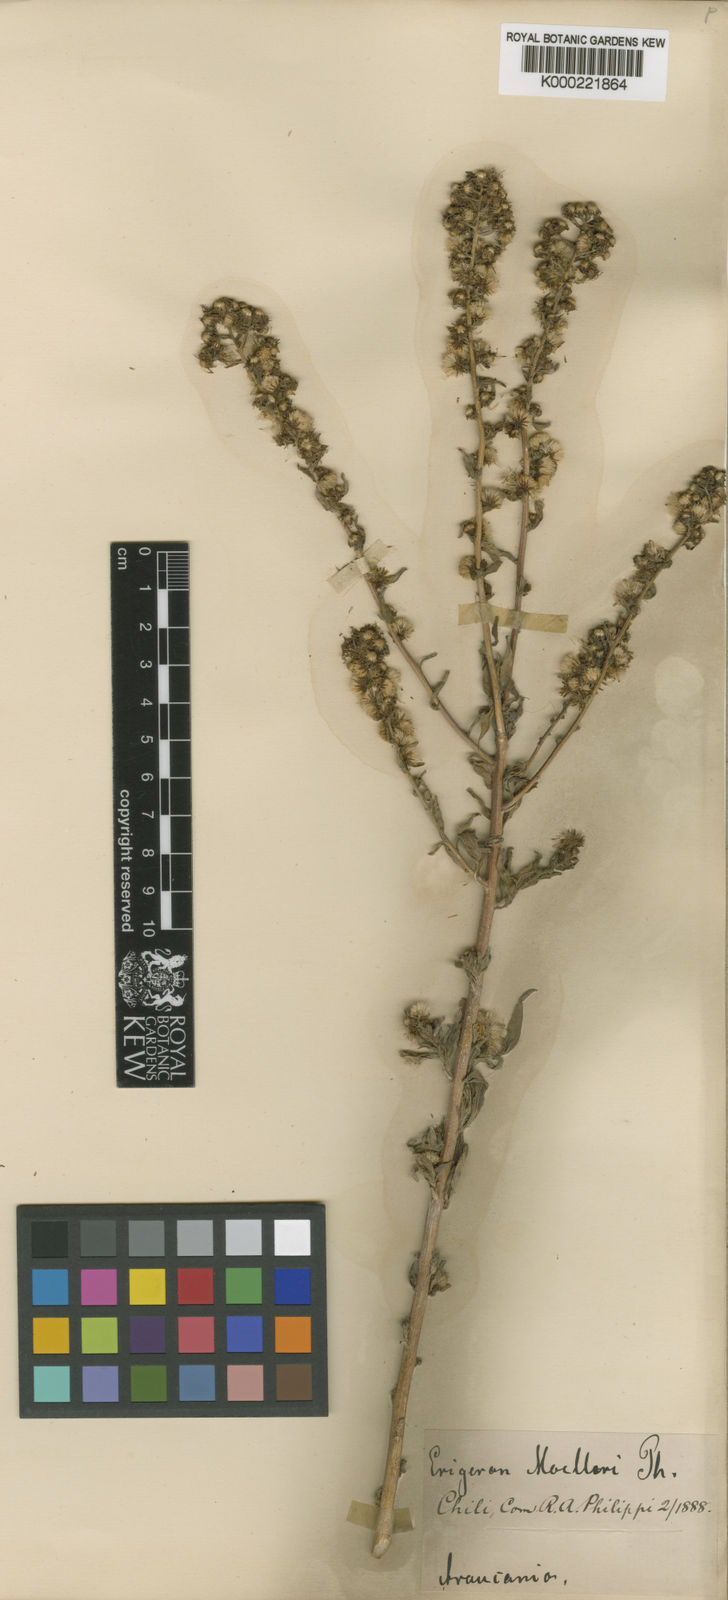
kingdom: Plantae
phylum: Tracheophyta
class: Magnoliopsida
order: Asterales
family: Asteraceae
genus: Erigeron
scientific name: Erigeron
